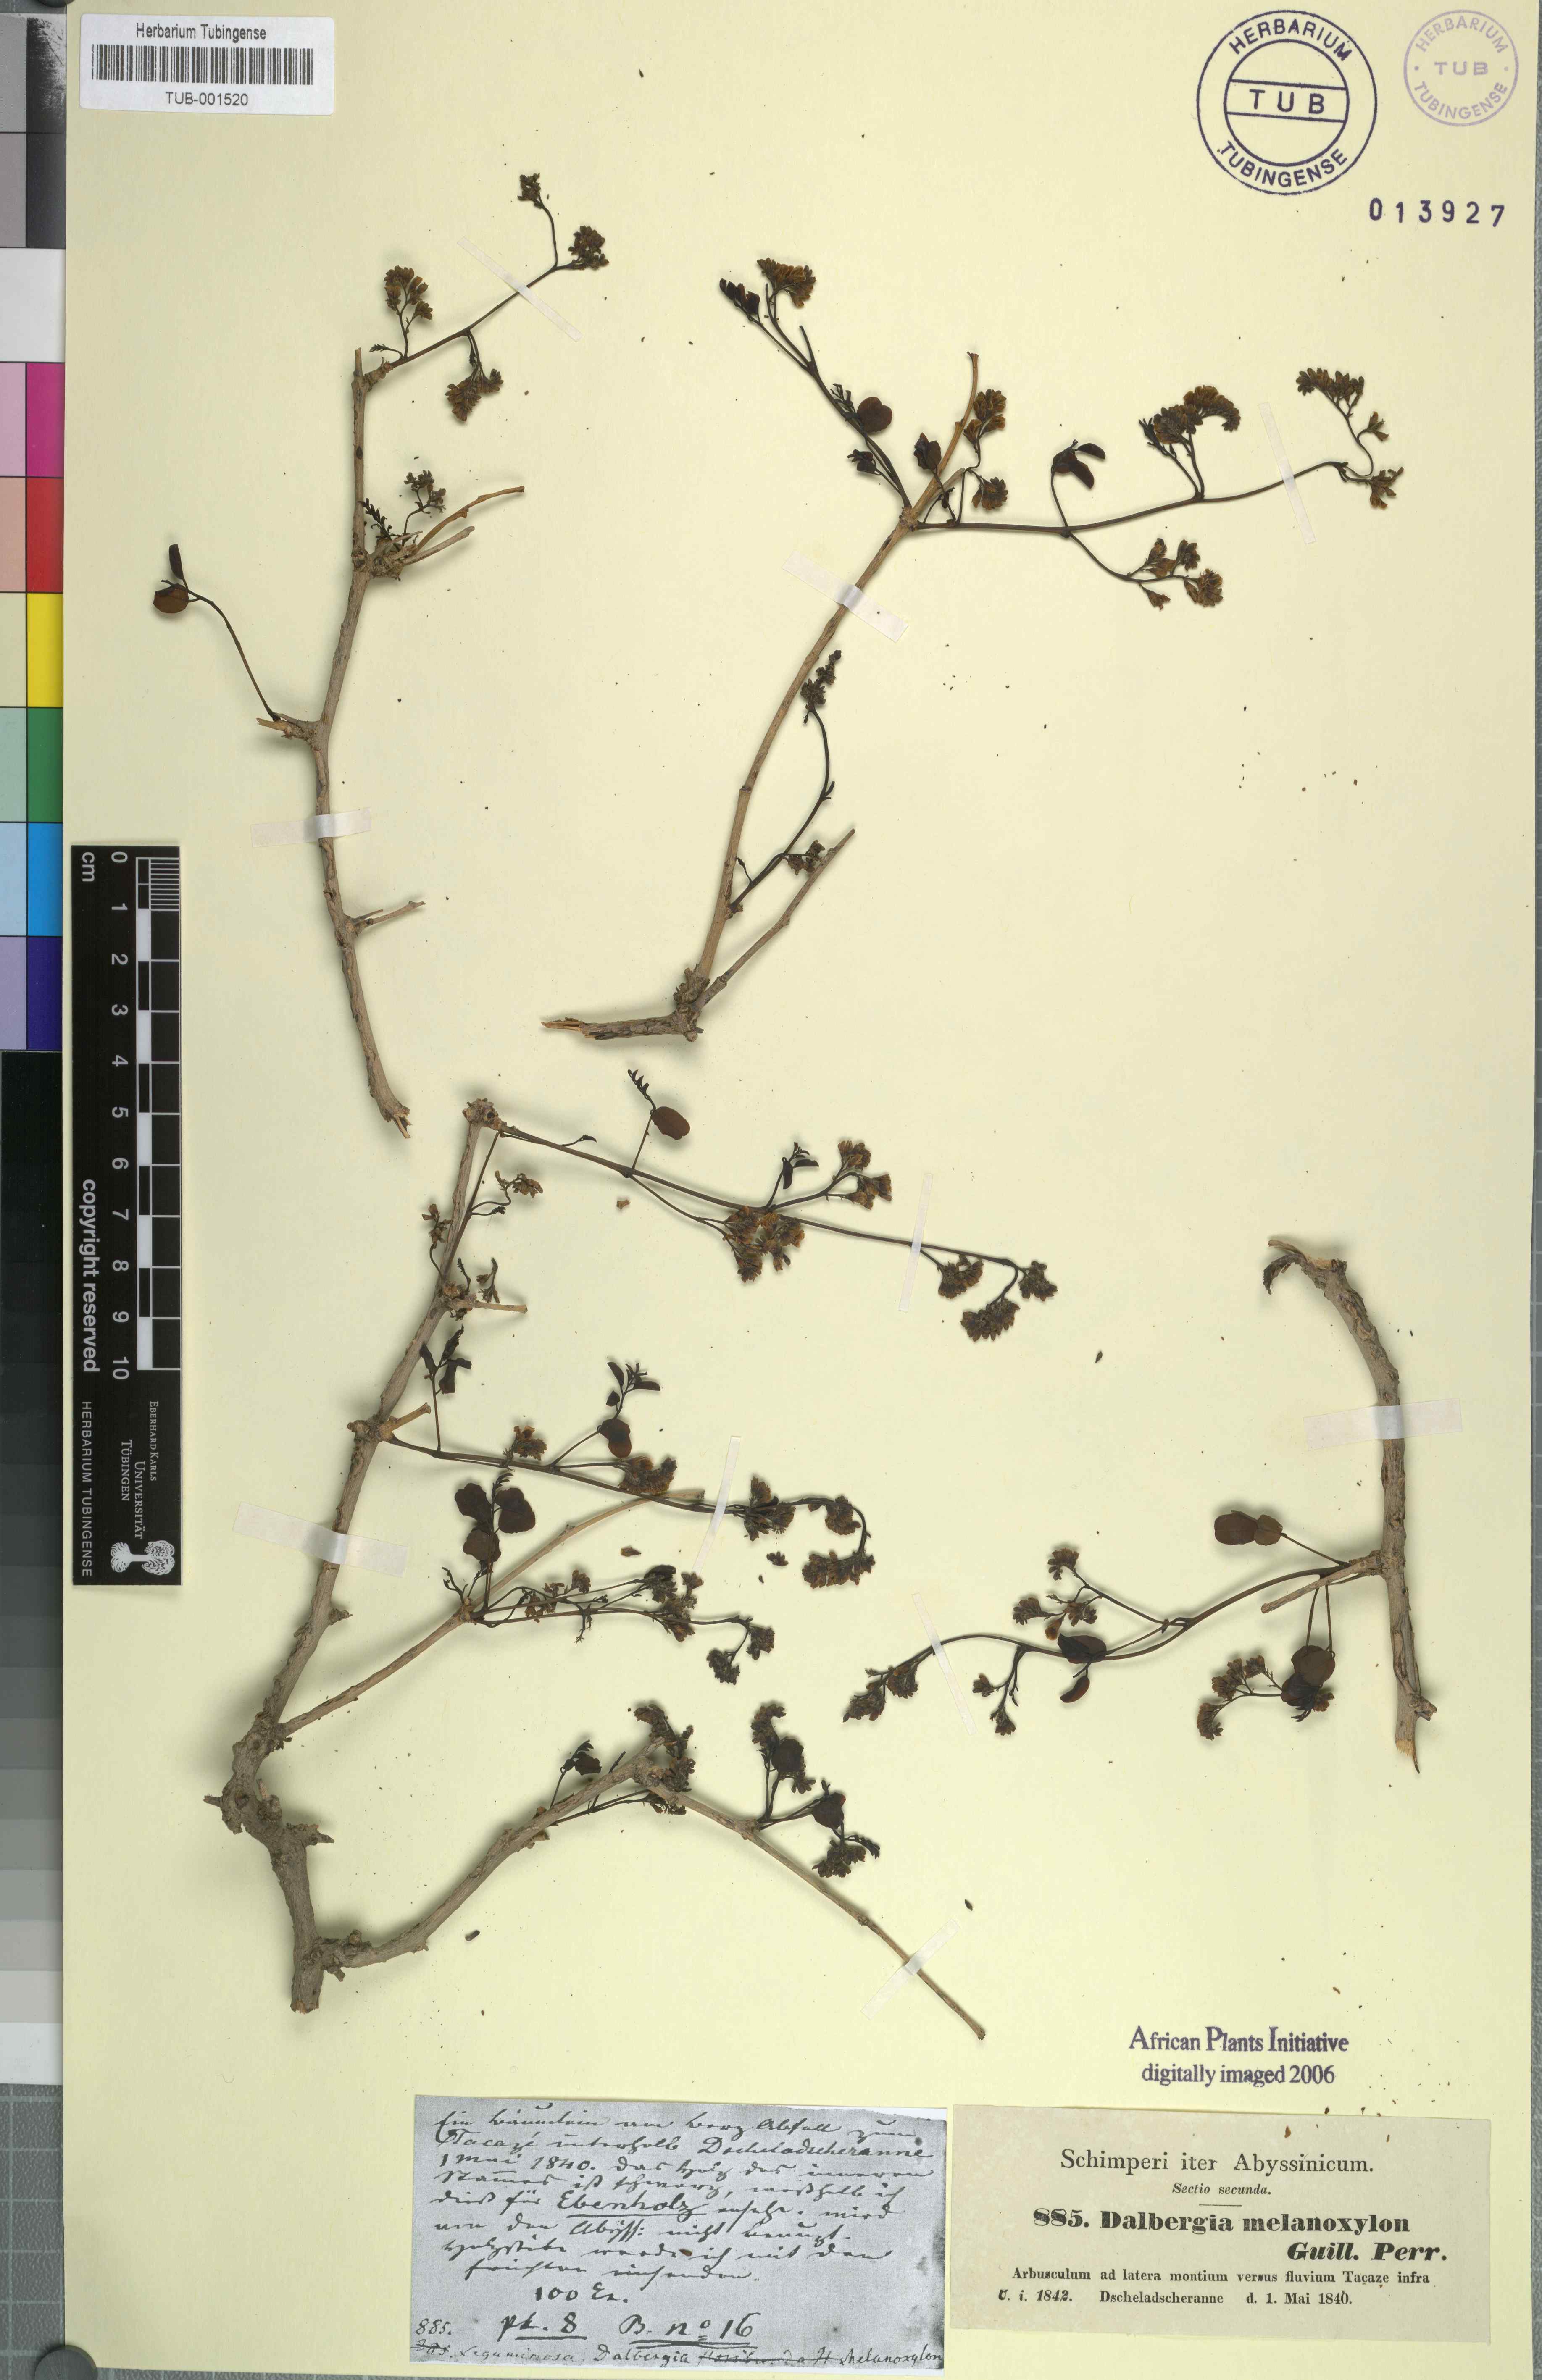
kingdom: Plantae
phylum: Tracheophyta
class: Magnoliopsida
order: Fabales
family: Fabaceae
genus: Dalbergia
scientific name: Dalbergia melanoxylon
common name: African blackwood
